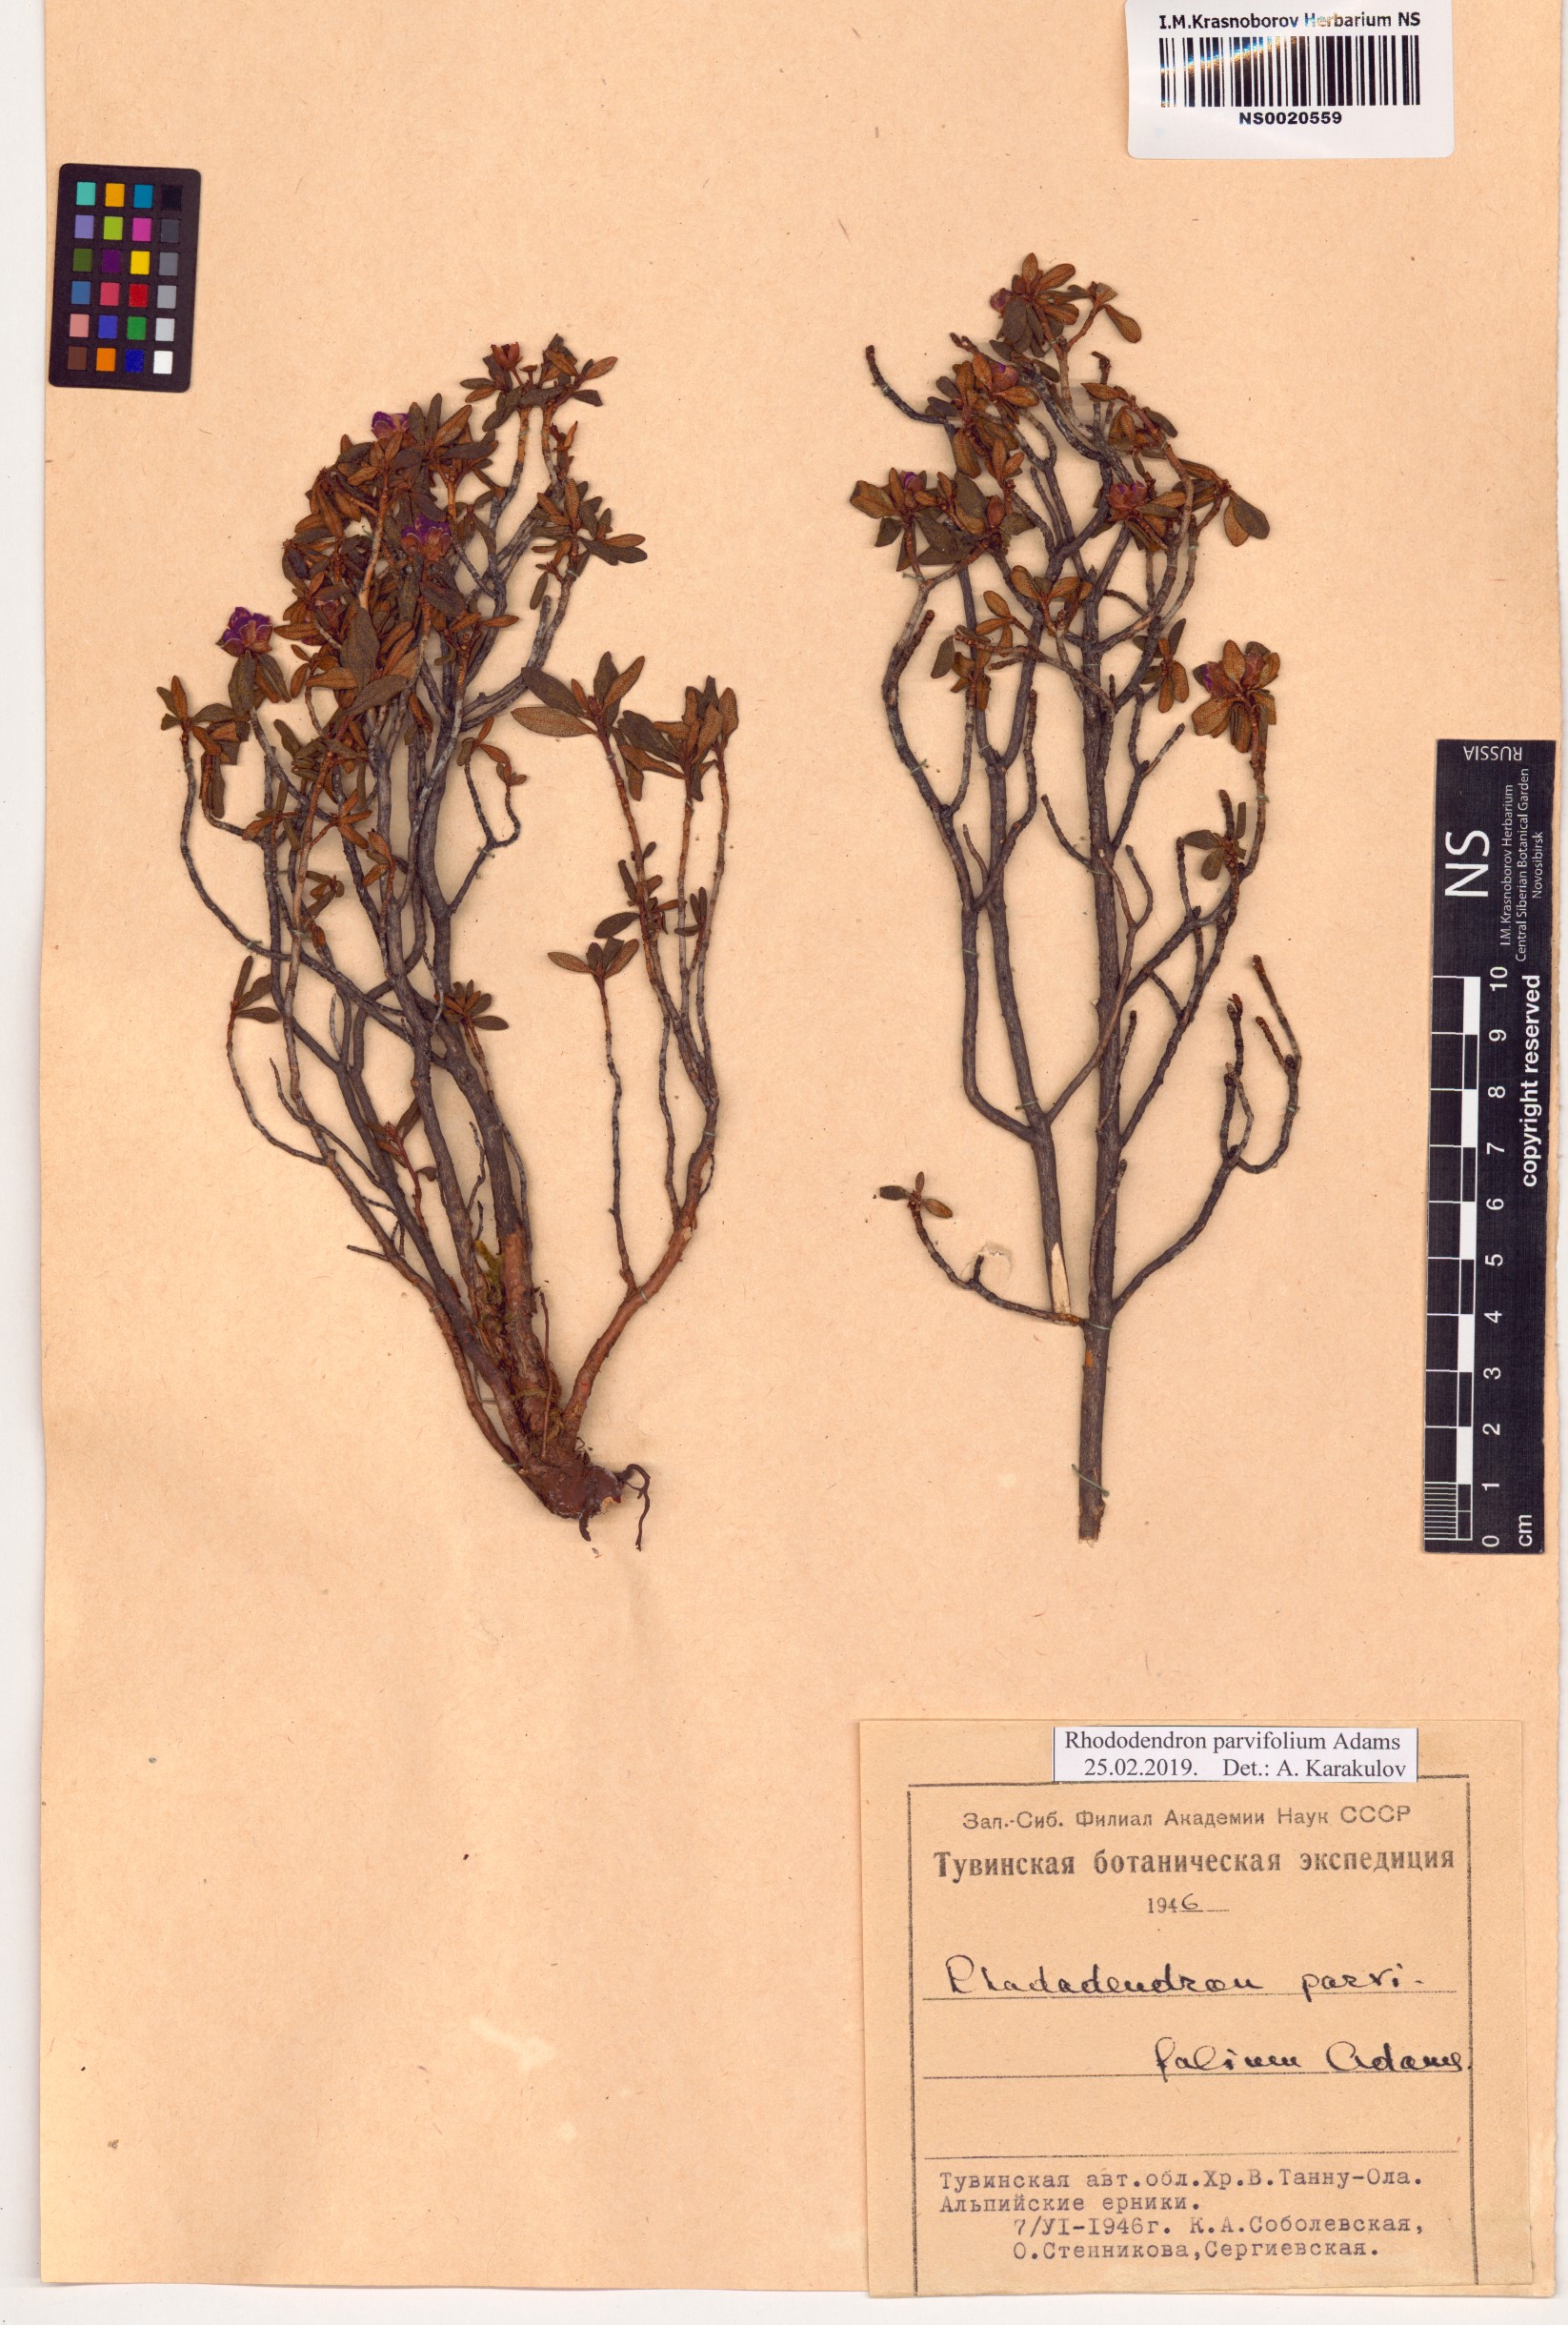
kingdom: Plantae
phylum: Tracheophyta
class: Magnoliopsida
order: Ericales
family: Ericaceae
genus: Rhododendron
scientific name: Rhododendron parvifolium
